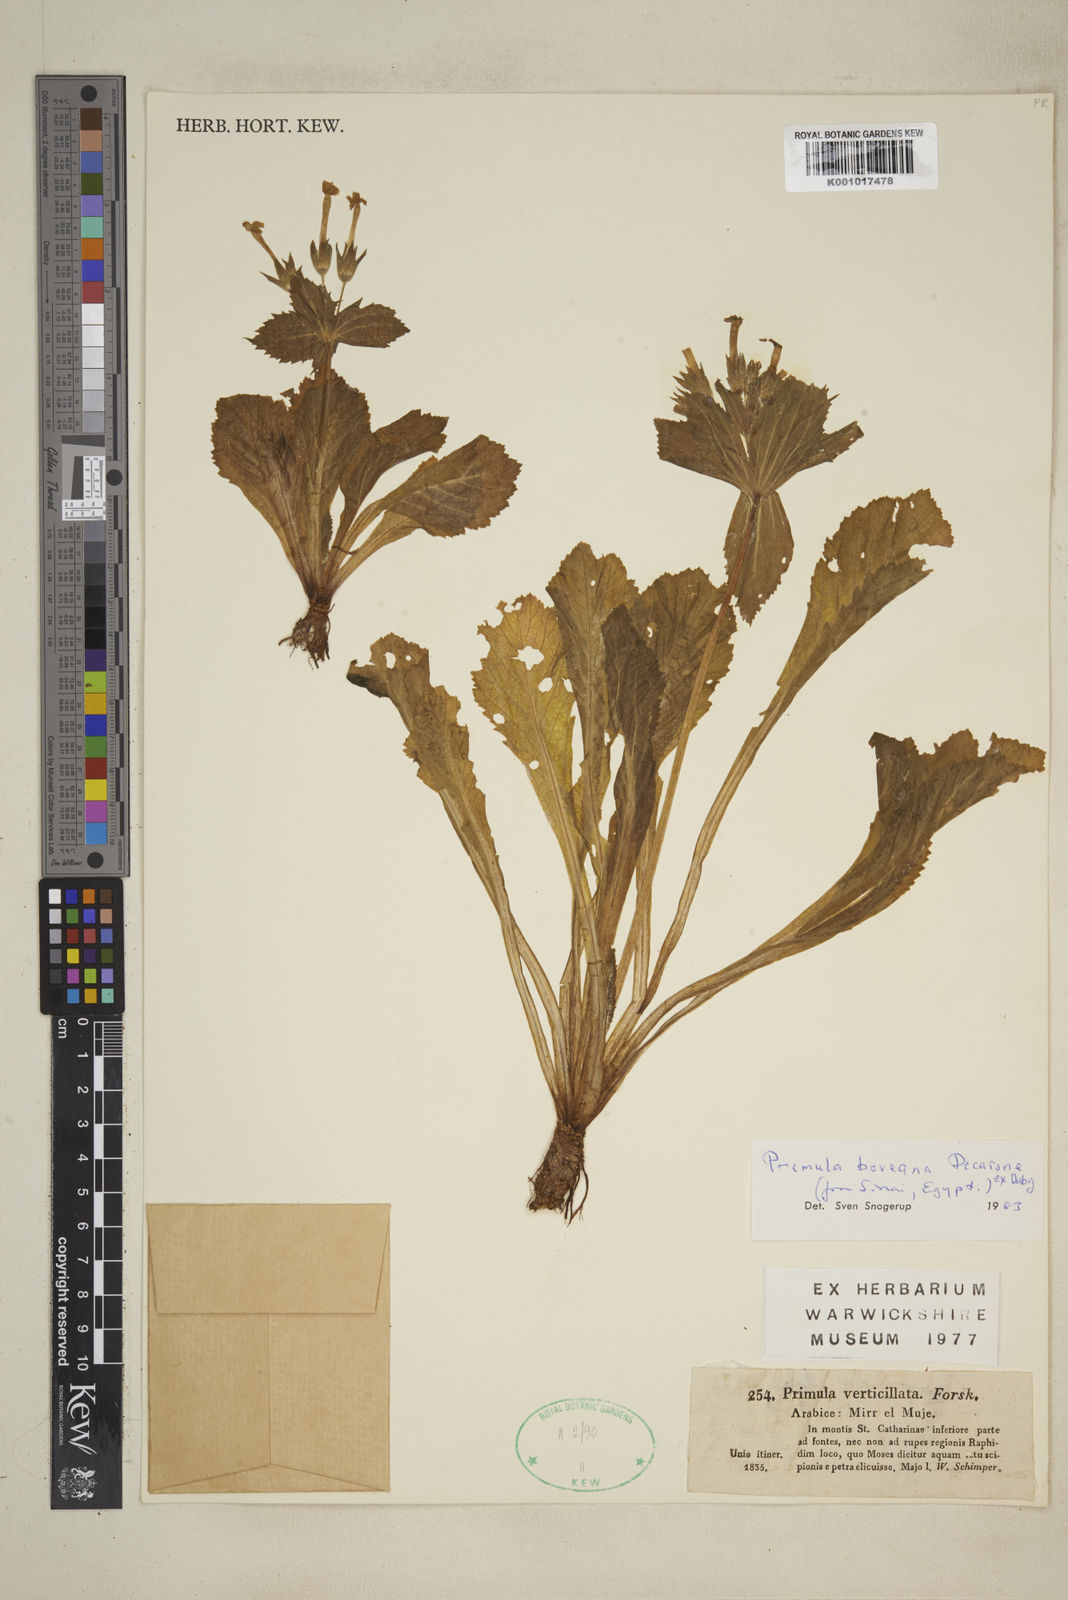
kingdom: Plantae
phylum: Tracheophyta
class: Magnoliopsida
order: Ericales
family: Primulaceae
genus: Evotrochis
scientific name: Evotrochis involucrata
